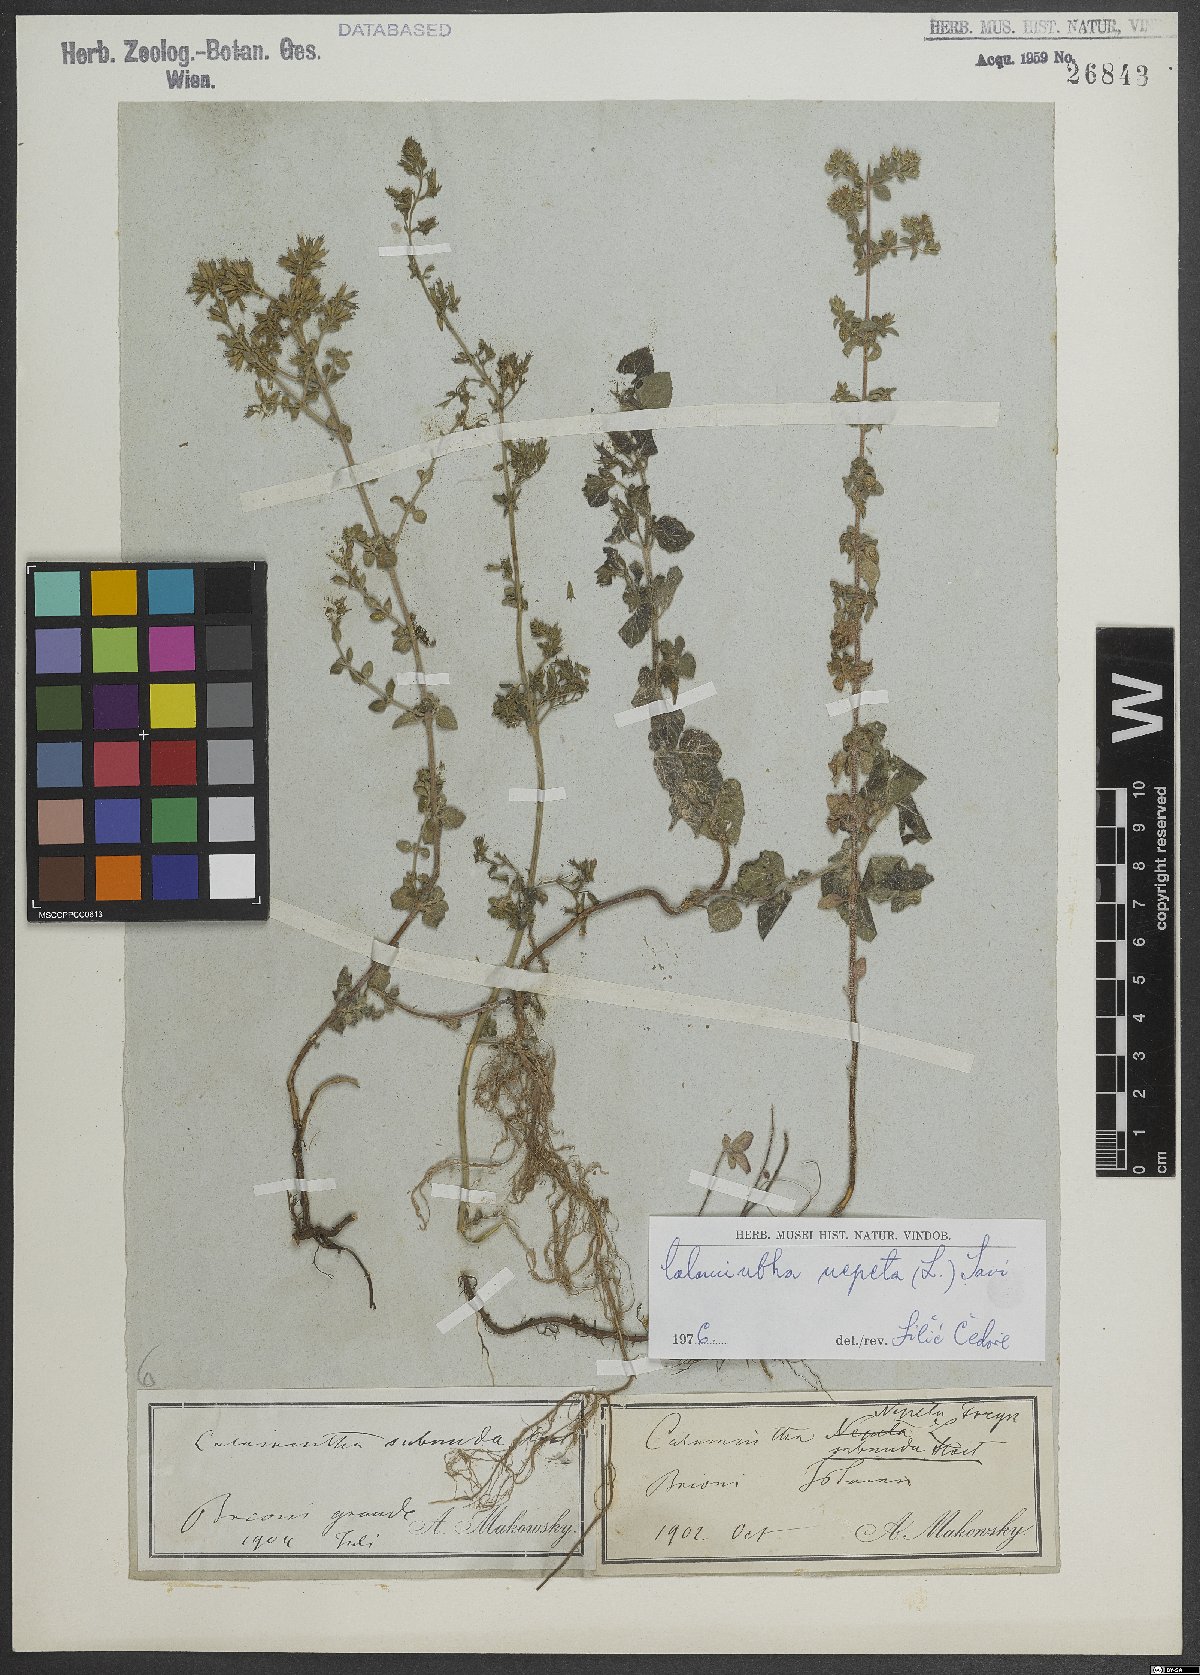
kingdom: Plantae
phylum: Tracheophyta
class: Magnoliopsida
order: Lamiales
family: Lamiaceae
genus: Clinopodium
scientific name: Clinopodium nepeta
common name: Lesser calamint
